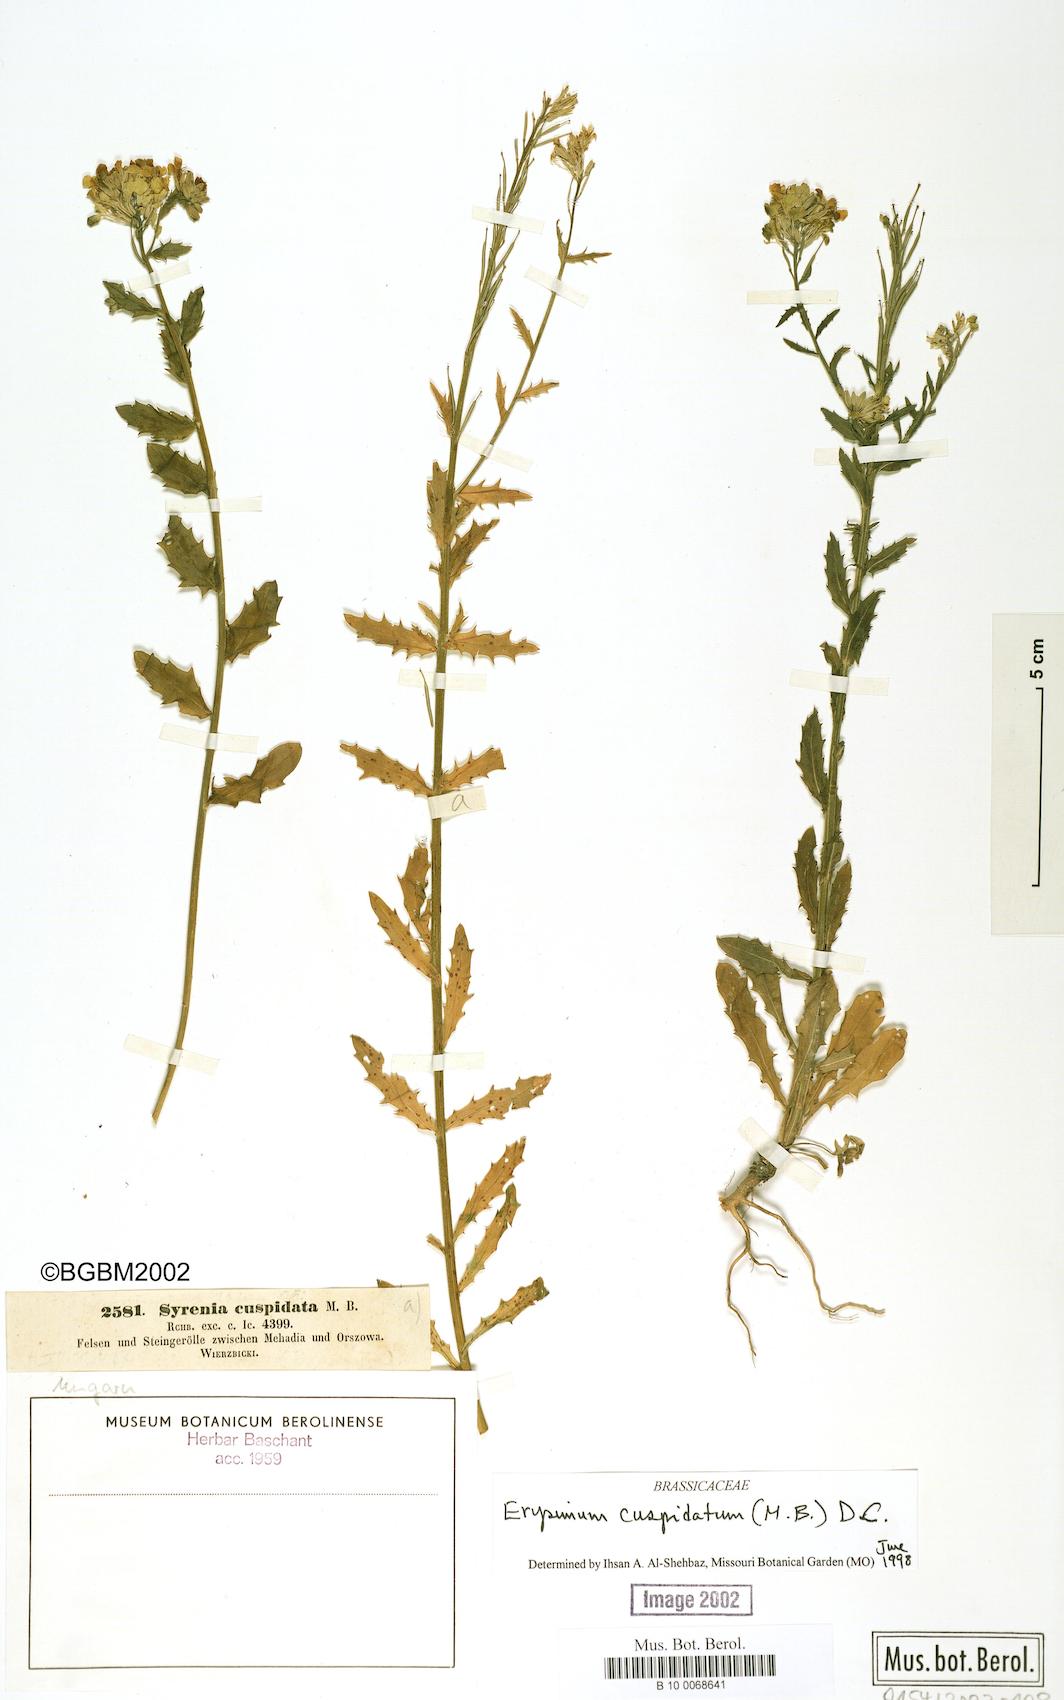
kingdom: Plantae
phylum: Tracheophyta
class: Magnoliopsida
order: Brassicales
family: Brassicaceae
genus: Erysimum
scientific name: Erysimum cuspidatum
